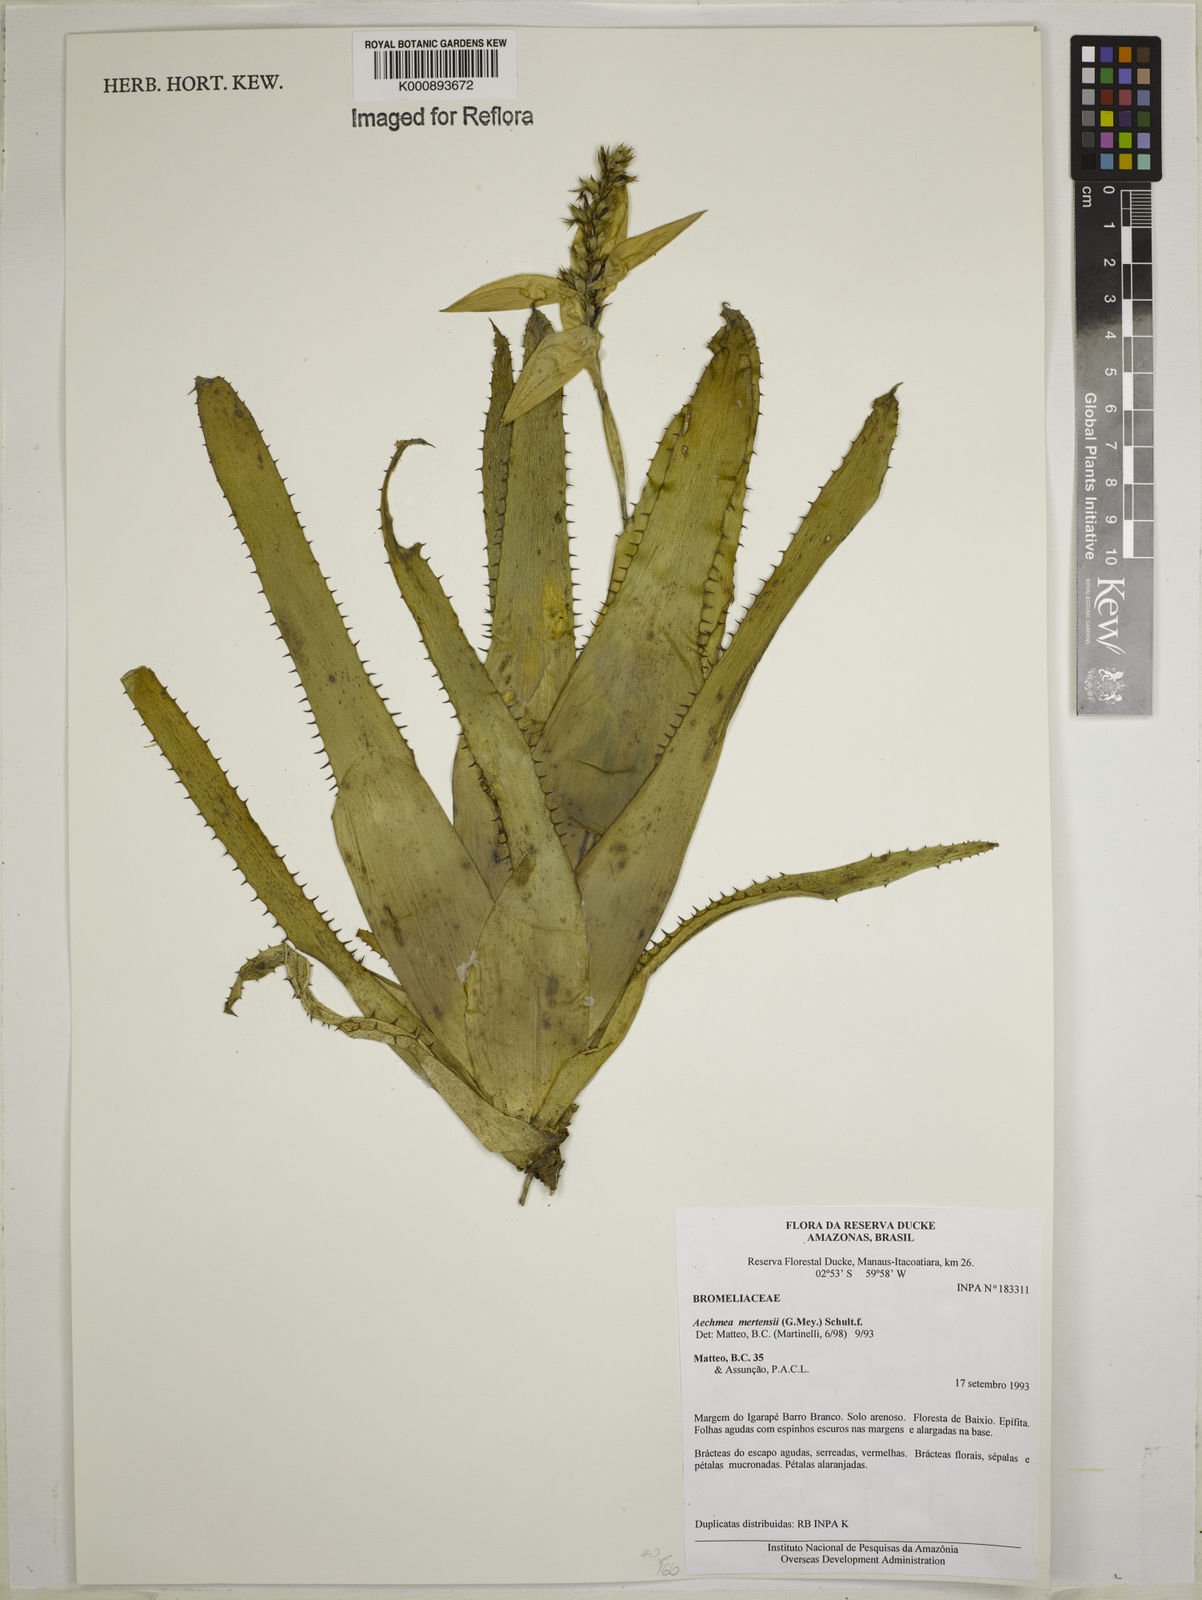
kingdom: Plantae
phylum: Tracheophyta
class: Liliopsida
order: Poales
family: Bromeliaceae
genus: Aechmea
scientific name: Aechmea mertensii
